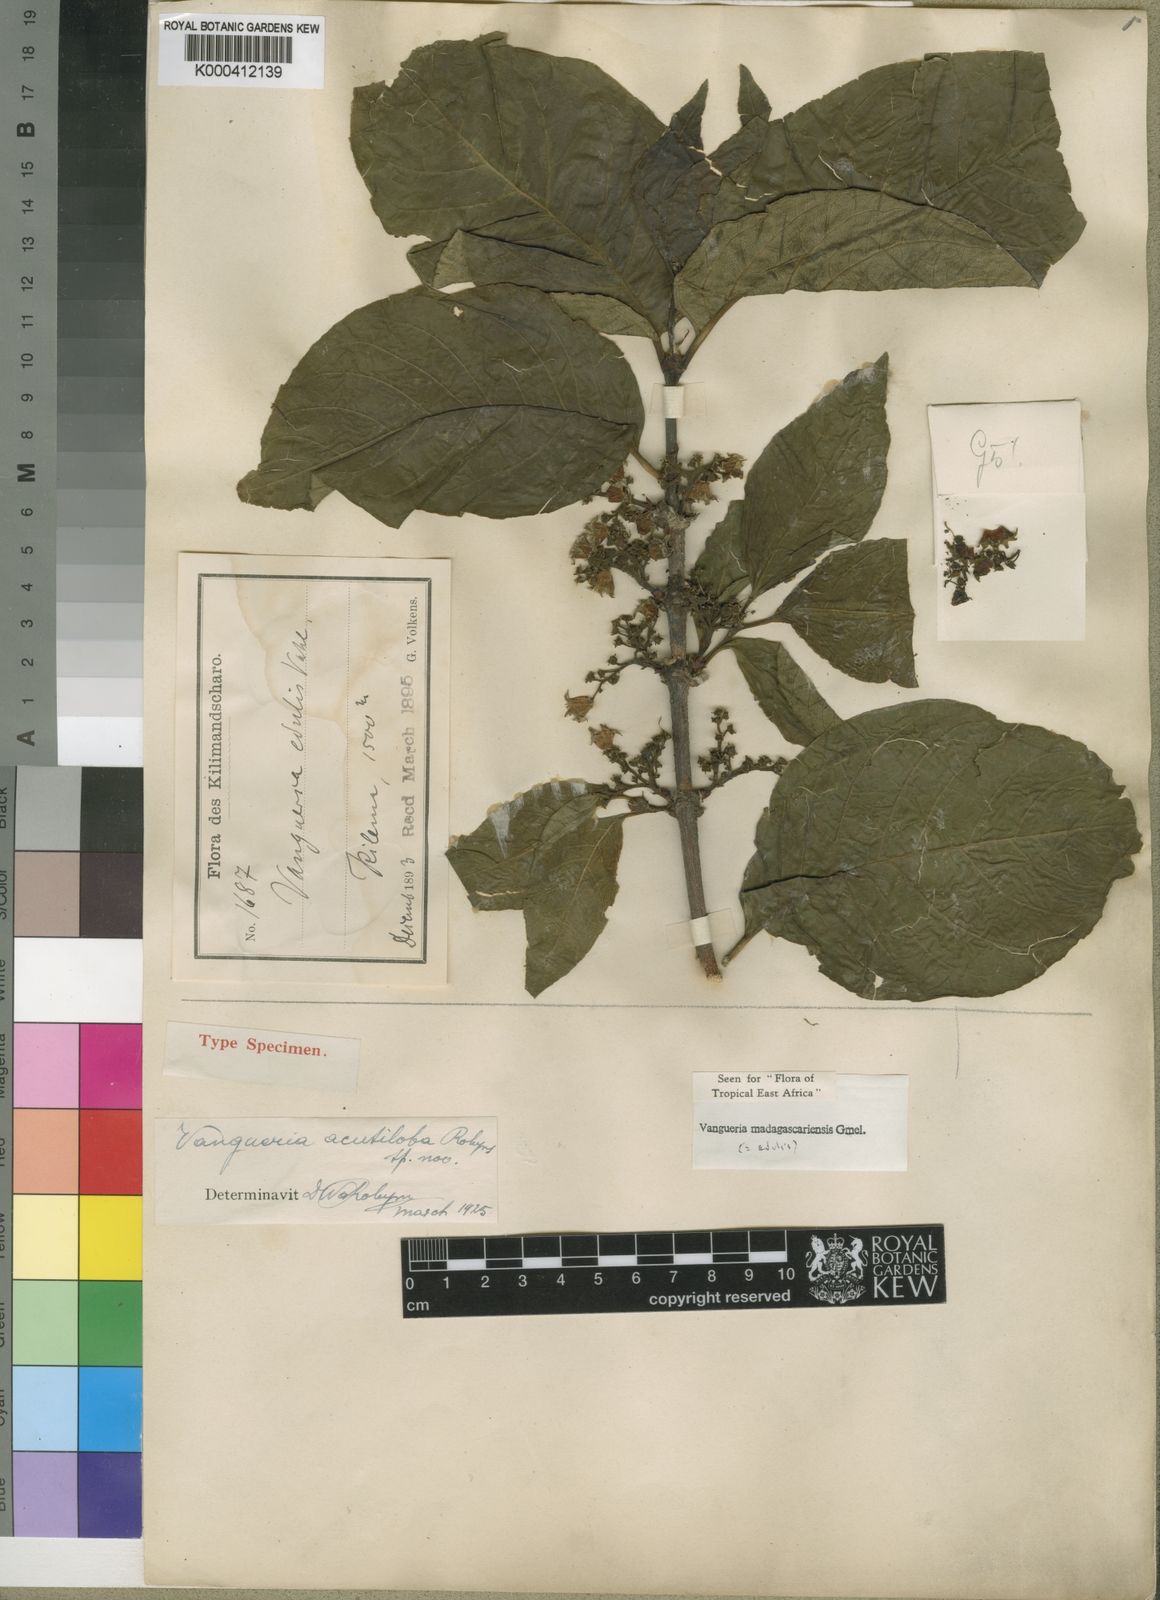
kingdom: Plantae
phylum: Tracheophyta
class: Magnoliopsida
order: Gentianales
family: Rubiaceae
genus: Vangueria
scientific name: Vangueria madagascariensis
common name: Smooth wild-medlar
